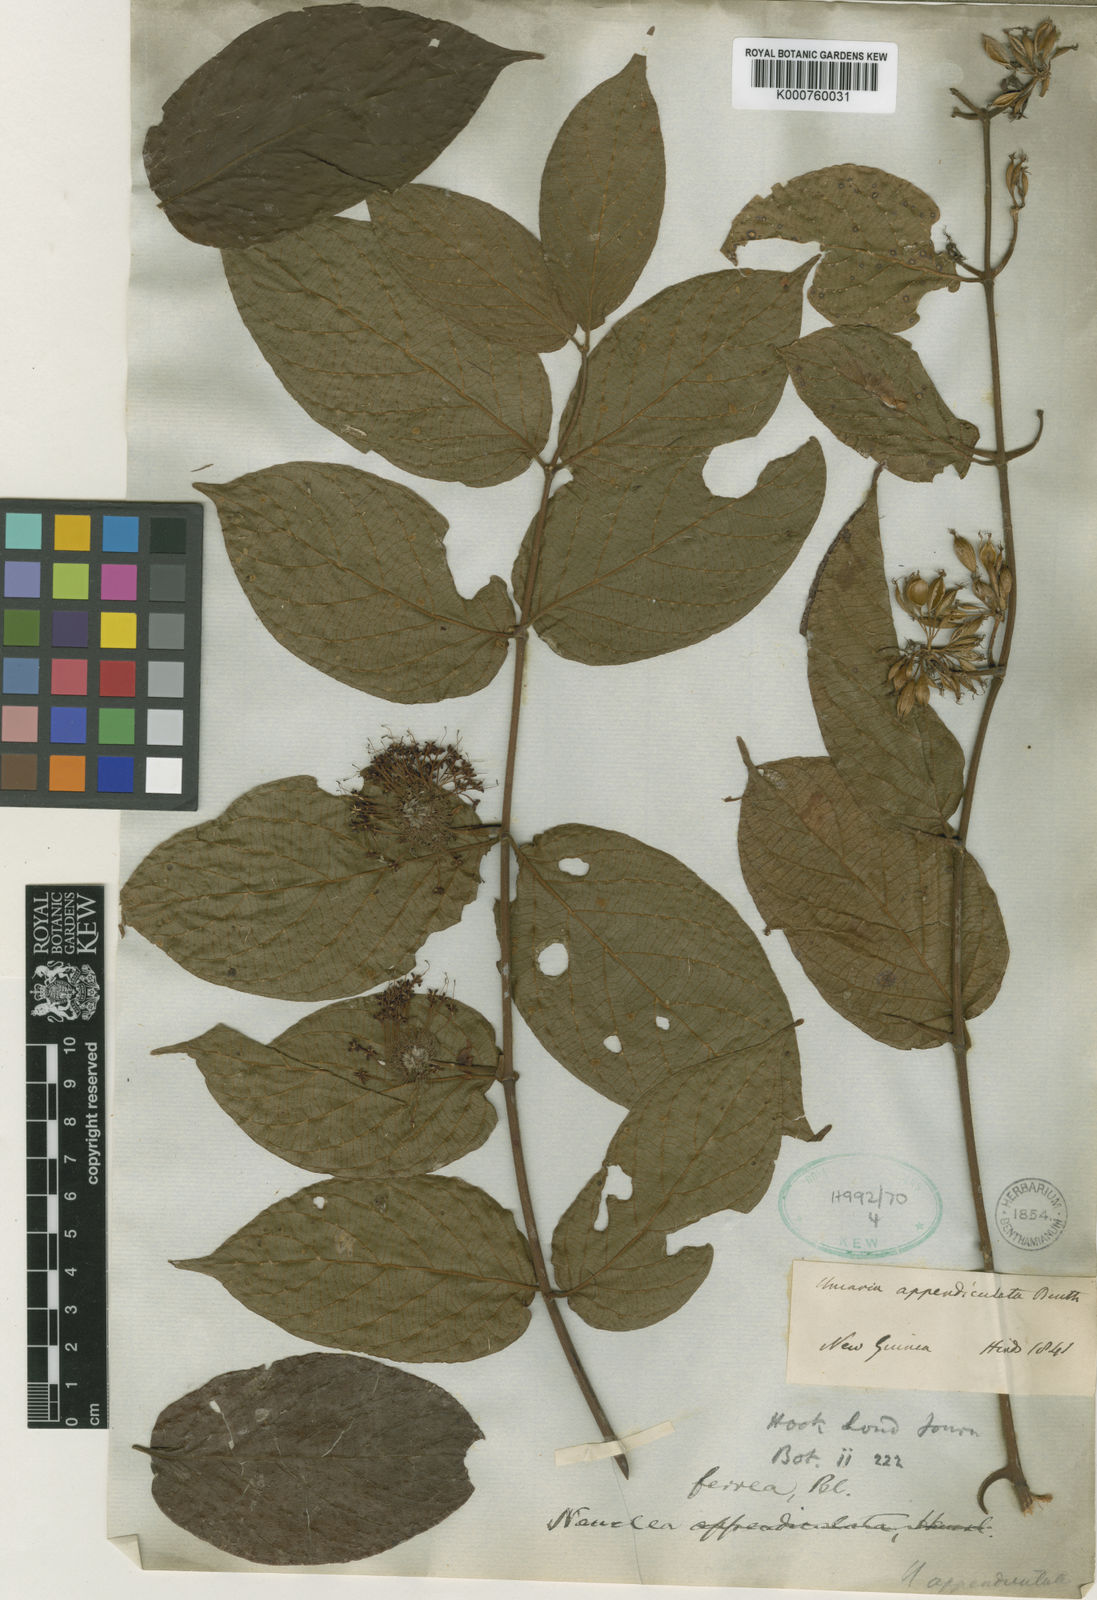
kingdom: Plantae
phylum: Tracheophyta
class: Magnoliopsida
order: Gentianales
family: Rubiaceae
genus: Uncaria
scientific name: Uncaria lanosa
